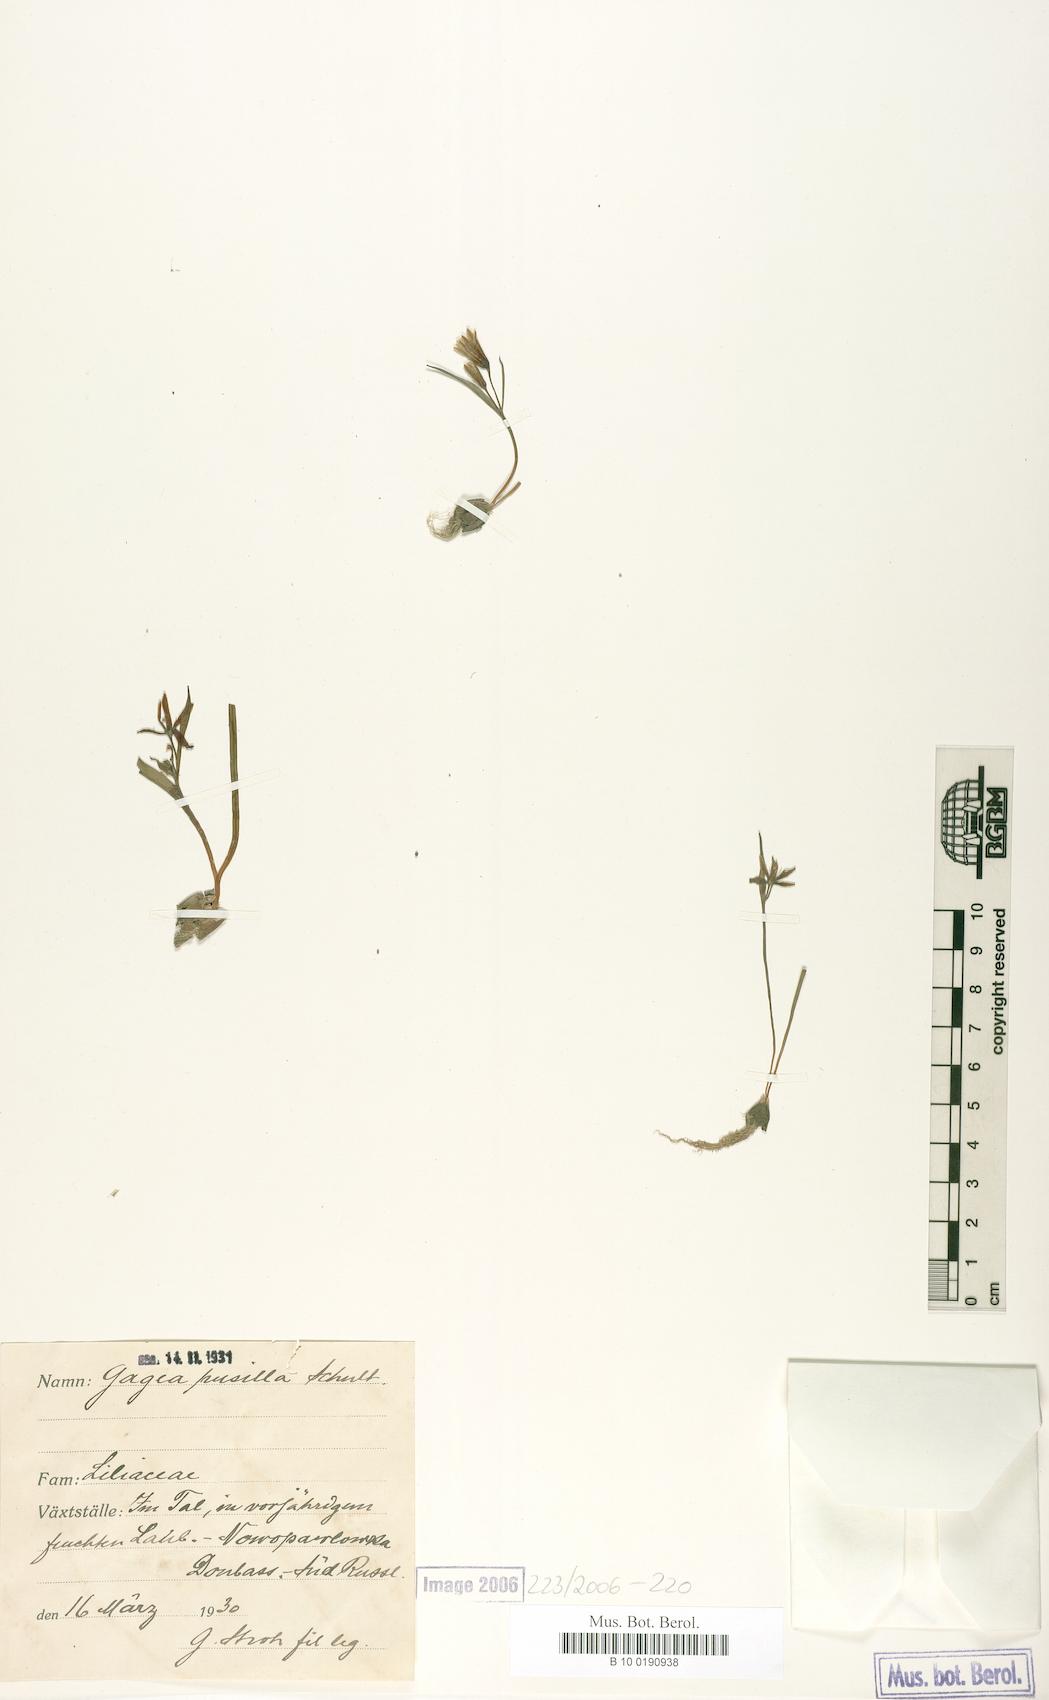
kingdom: Plantae
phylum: Tracheophyta
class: Liliopsida
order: Liliales
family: Liliaceae
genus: Gagea
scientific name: Gagea pusilla
